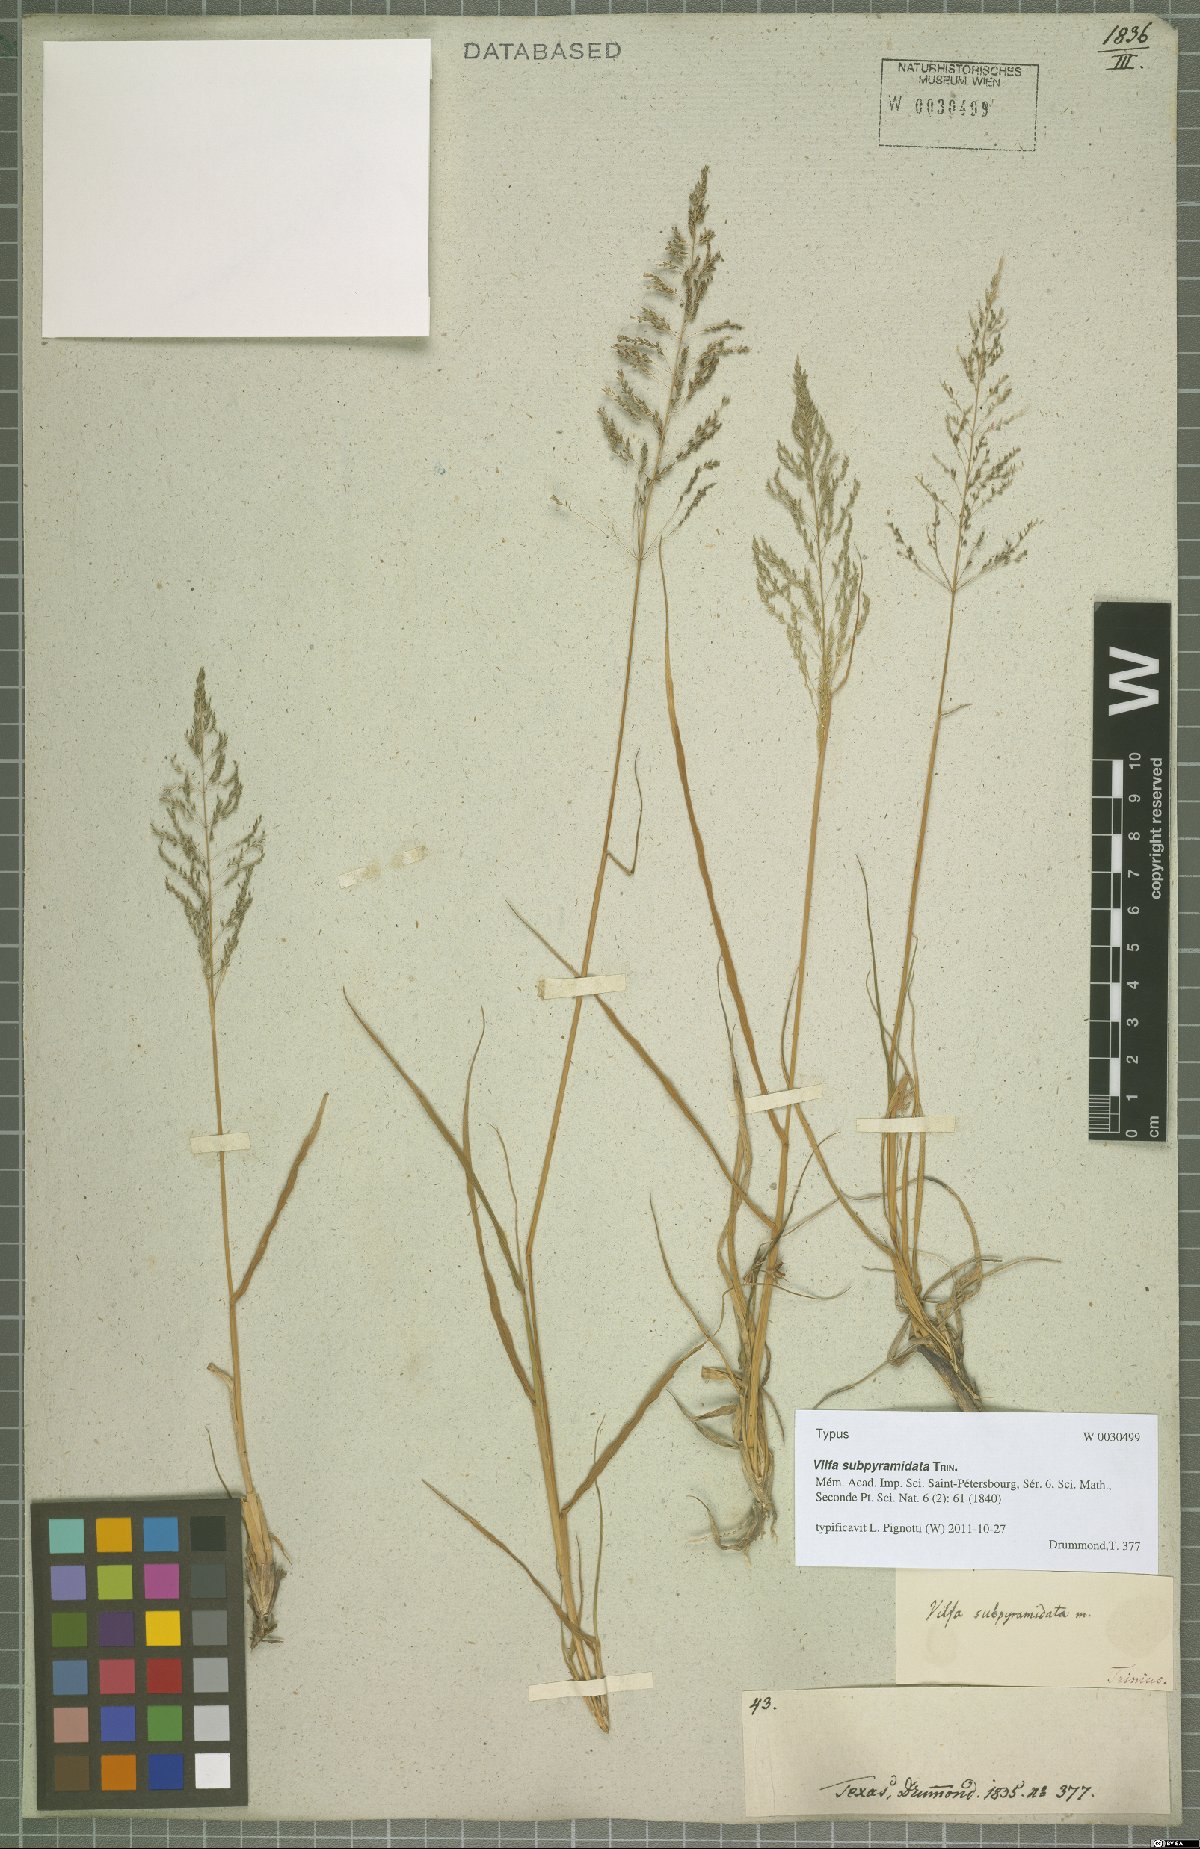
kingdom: Plantae
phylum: Tracheophyta
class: Liliopsida
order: Poales
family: Poaceae
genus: Sporobolus
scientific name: Sporobolus pyramidatus
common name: Whorled dropseed
